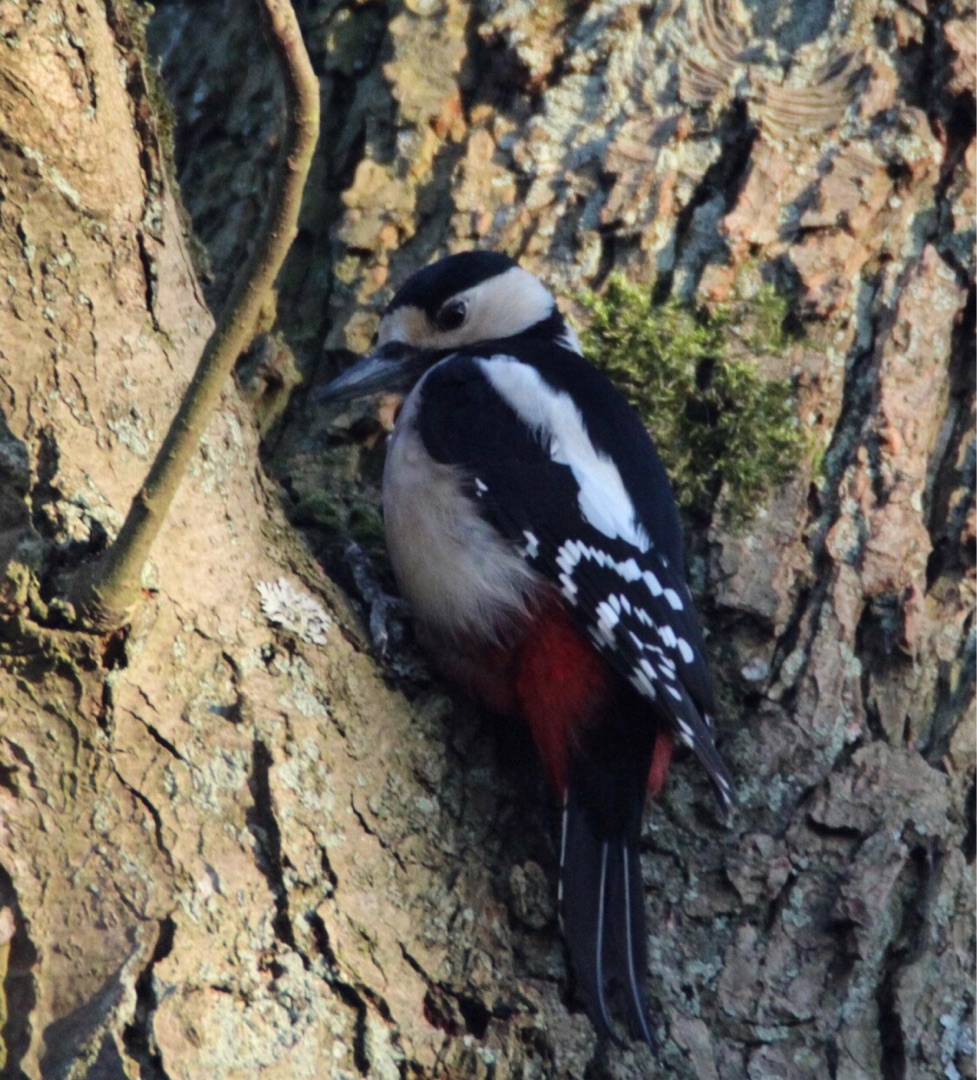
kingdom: Animalia
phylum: Chordata
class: Aves
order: Piciformes
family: Picidae
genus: Dendrocopos
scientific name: Dendrocopos major
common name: Stor flagspætte
